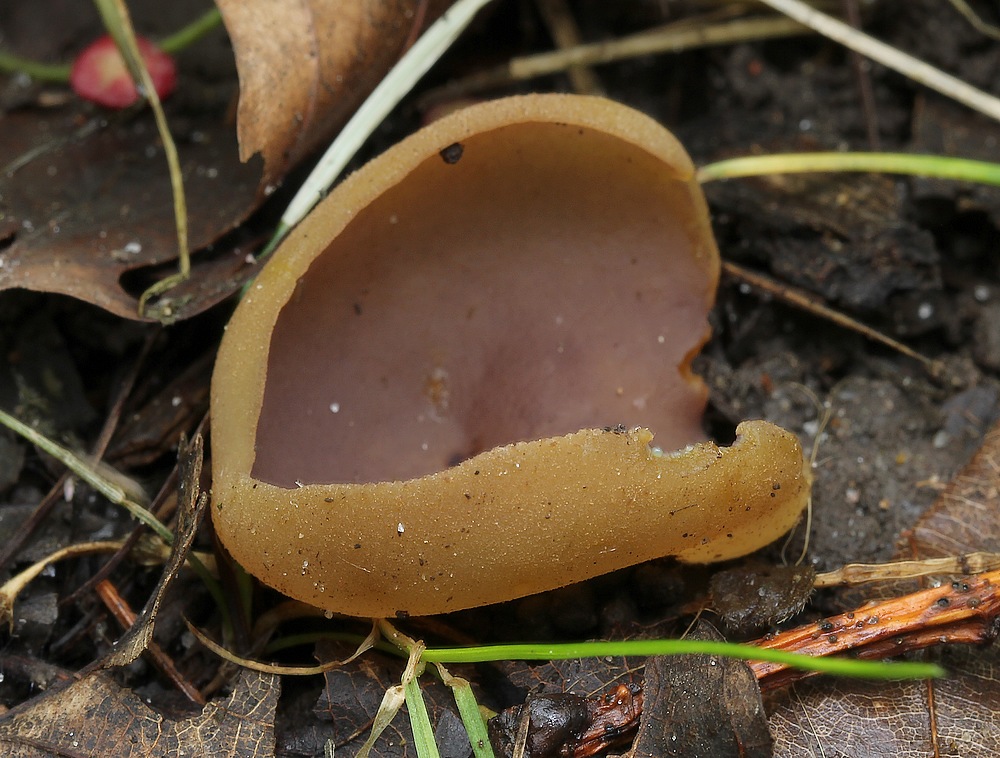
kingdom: Fungi
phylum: Ascomycota
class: Pezizomycetes
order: Pezizales
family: Pezizaceae
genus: Paragalactinia
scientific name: Paragalactinia michelii
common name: gulkødet bægersvamp
